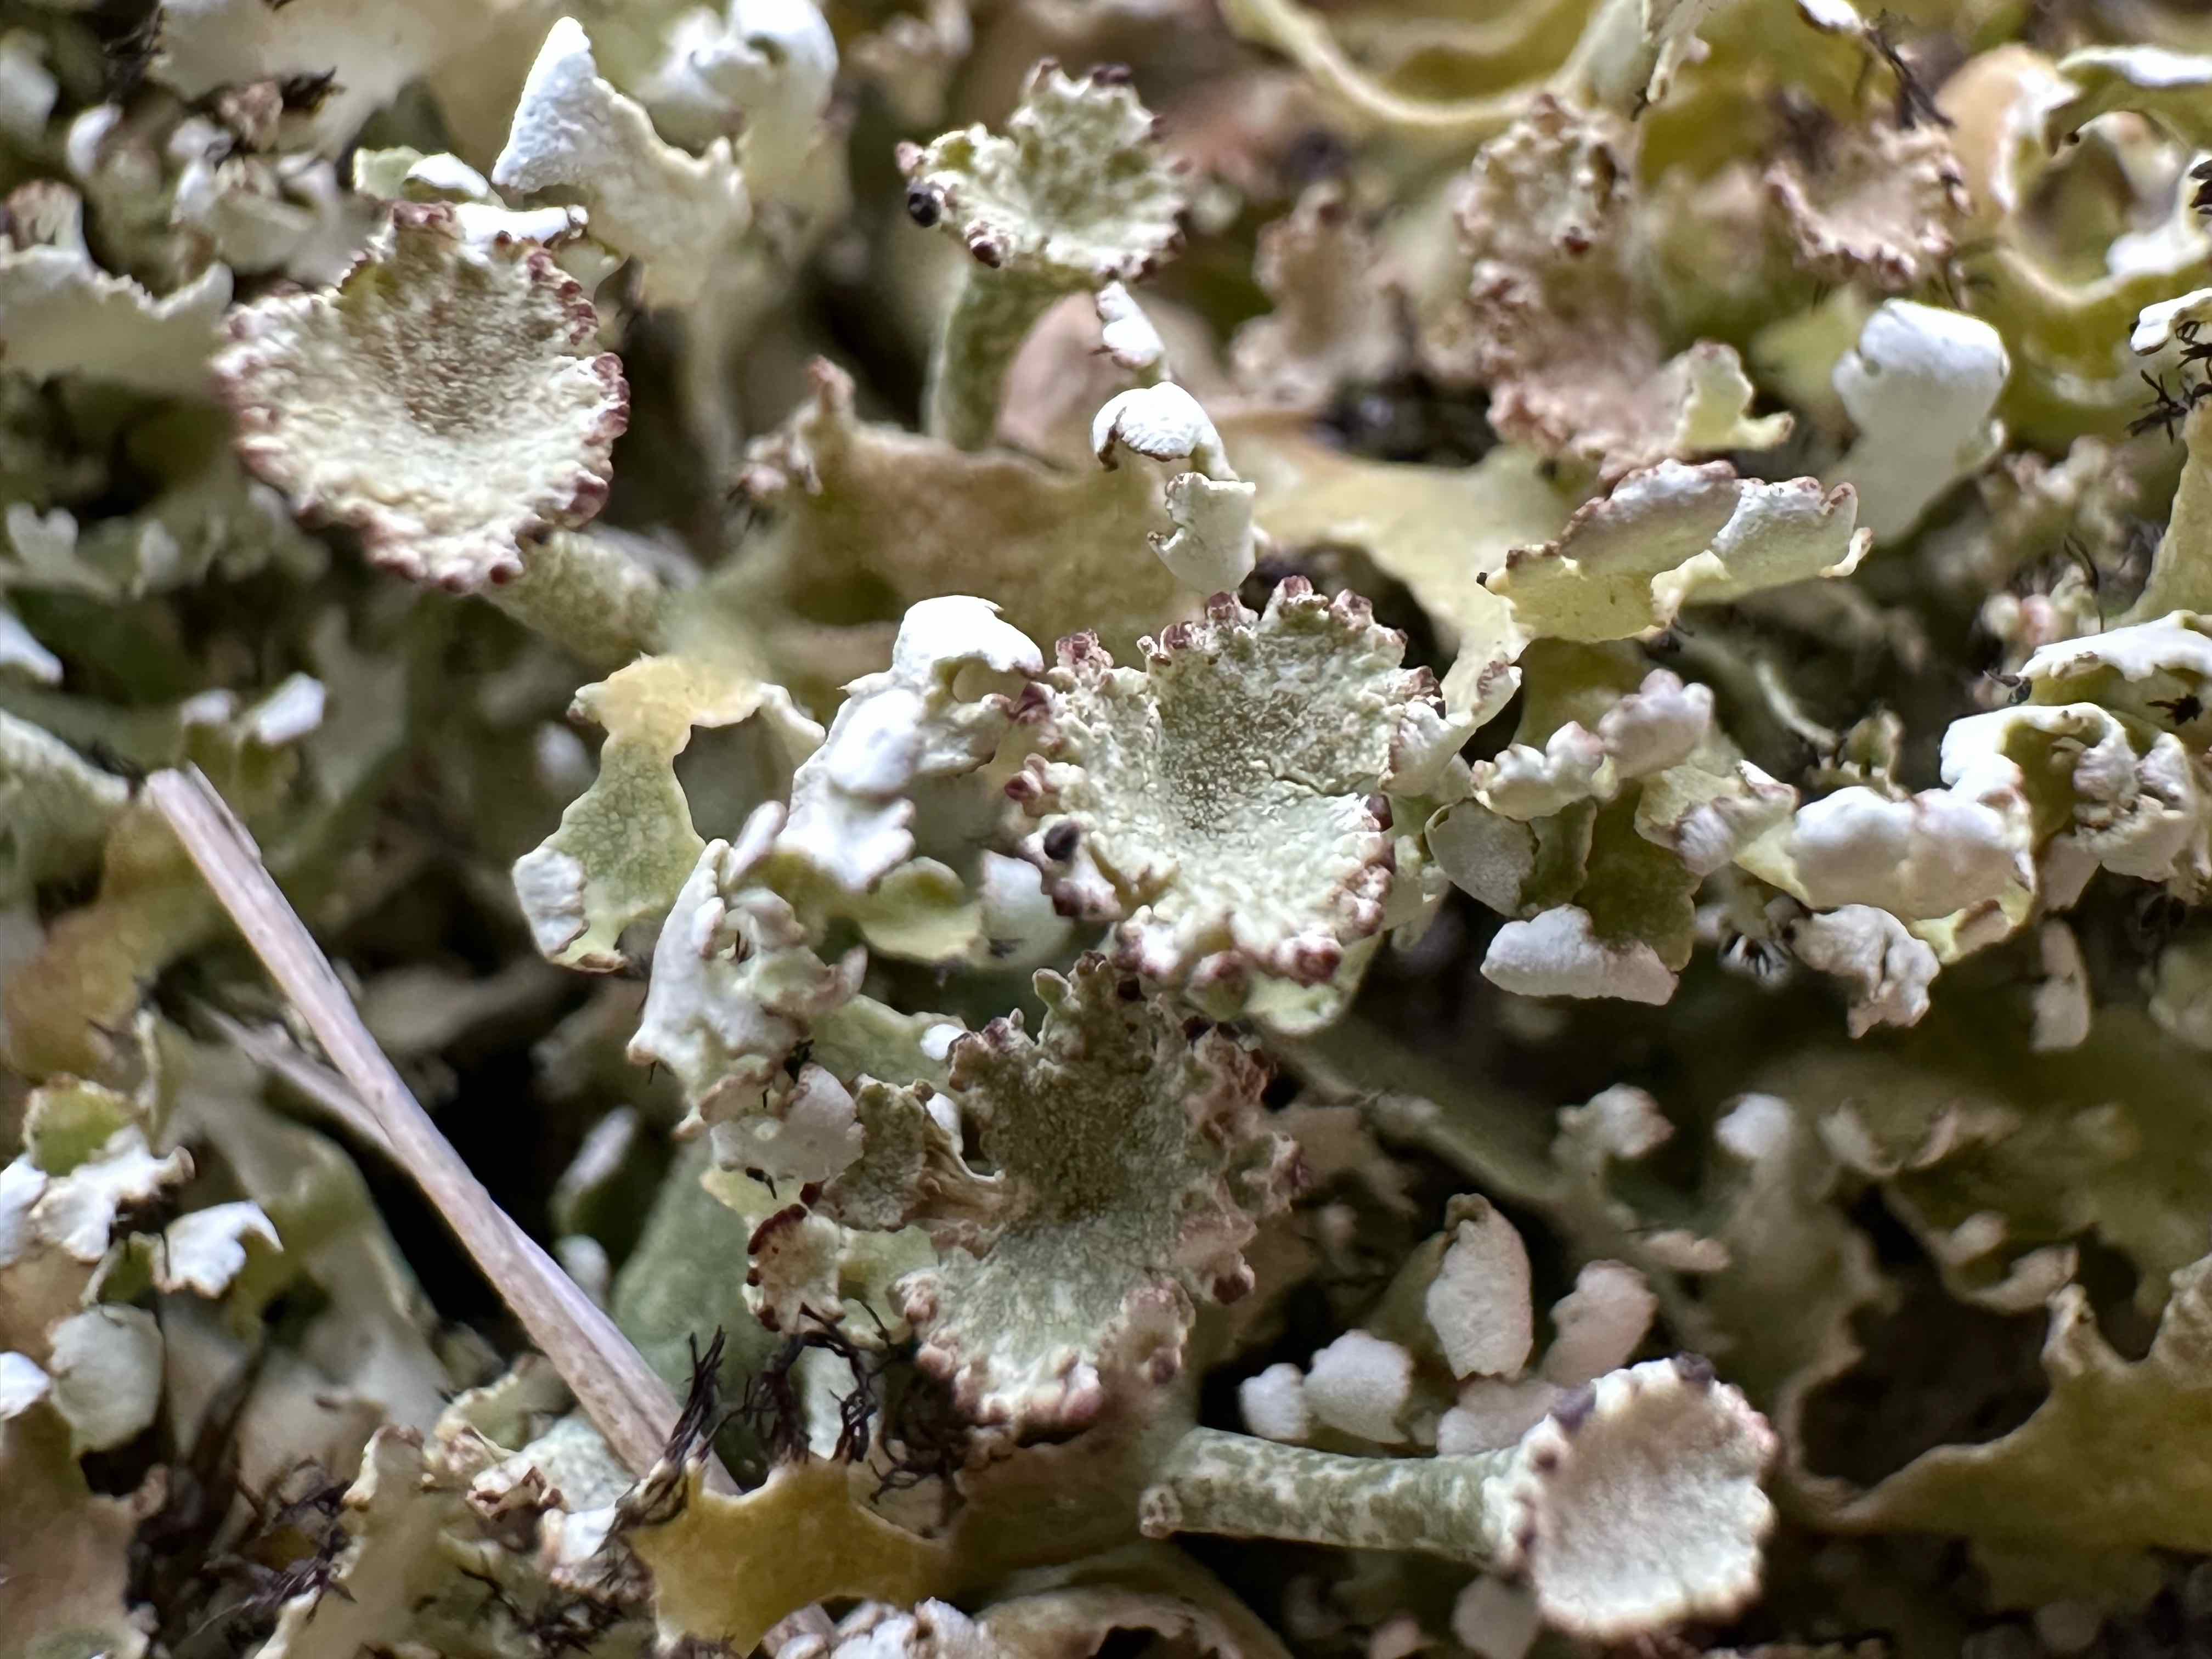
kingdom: Fungi
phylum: Ascomycota
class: Lecanoromycetes
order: Lecanorales
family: Cladoniaceae
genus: Cladonia
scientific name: Cladonia foliacea
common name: fliget bægerlav
